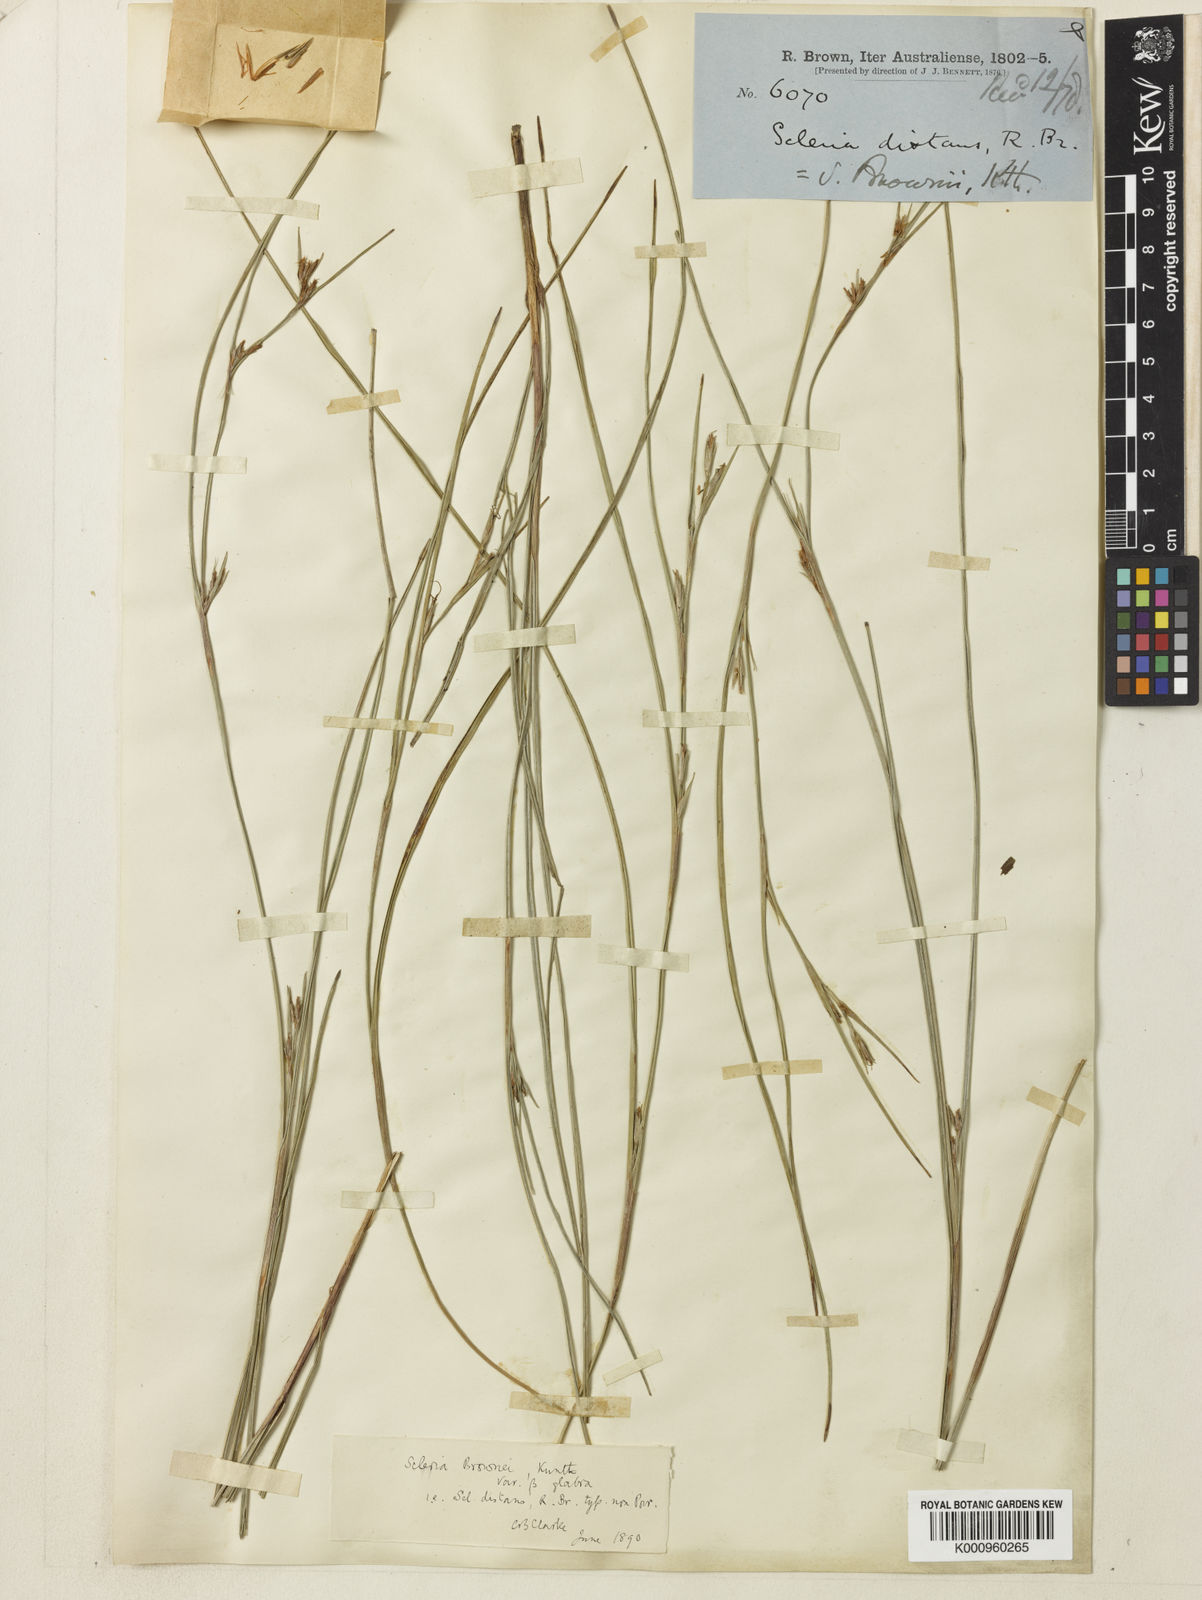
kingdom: Plantae
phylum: Tracheophyta
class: Liliopsida
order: Poales
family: Cyperaceae
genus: Scleria
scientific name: Scleria brownii
